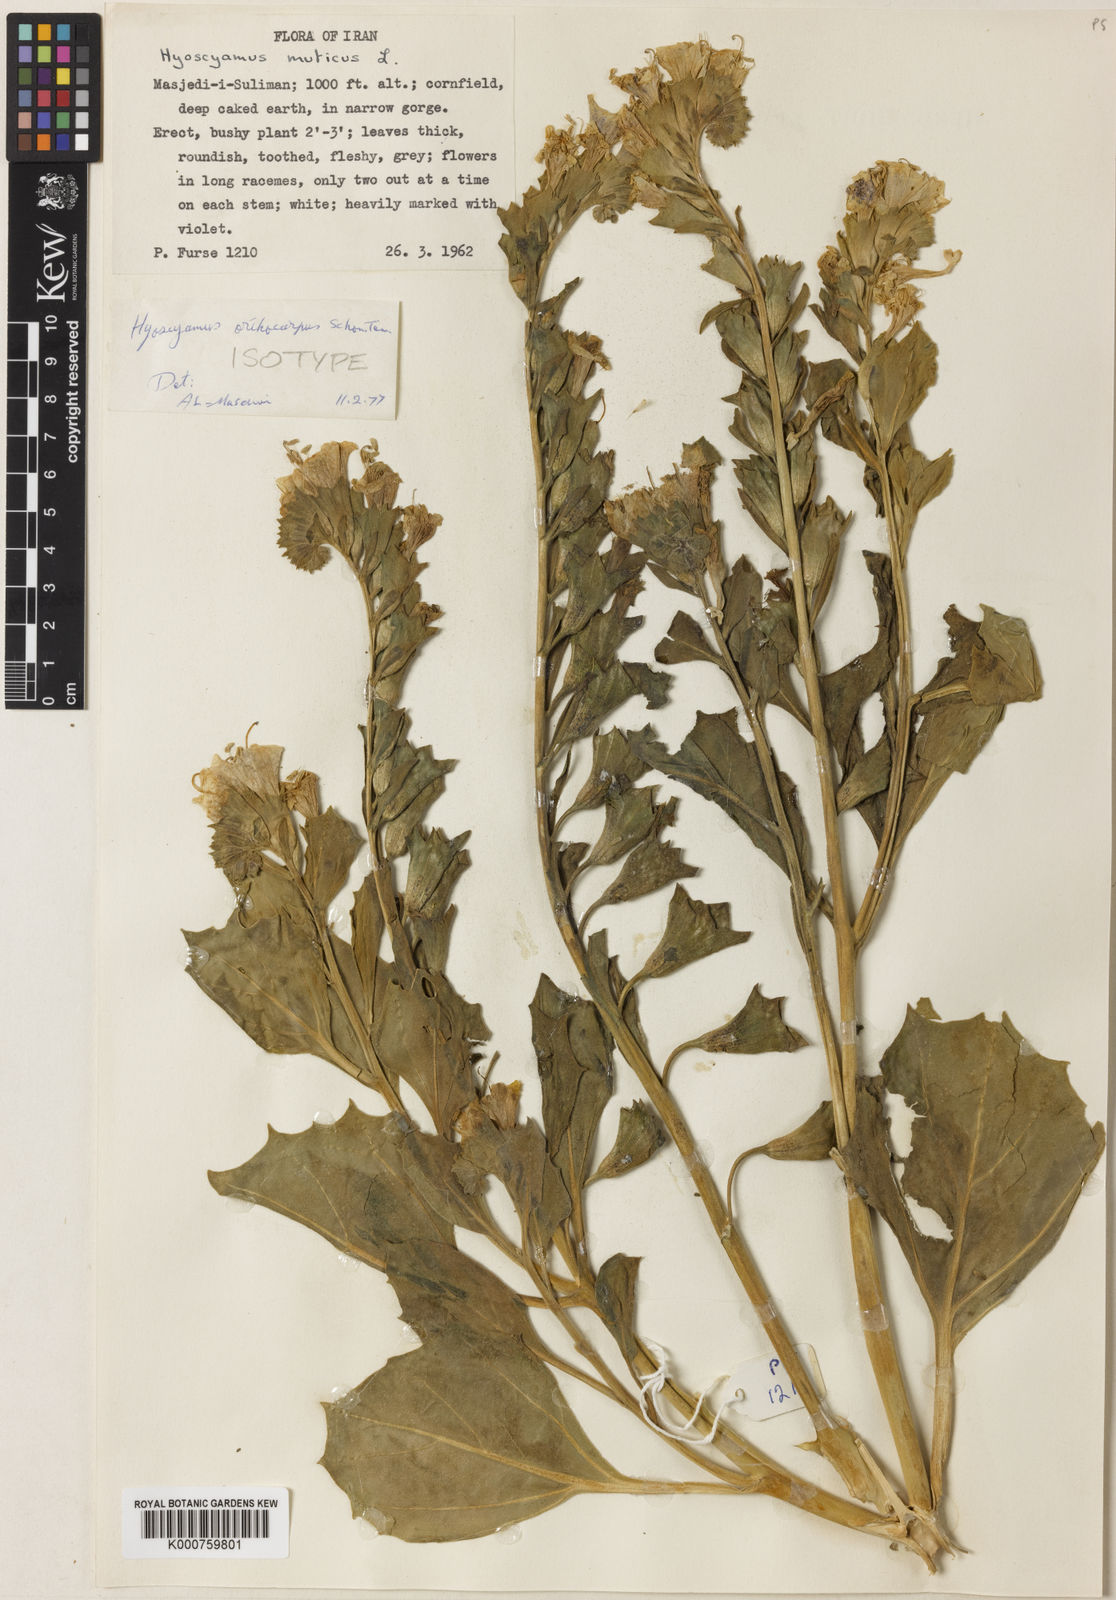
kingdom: Plantae
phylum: Tracheophyta
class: Magnoliopsida
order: Solanales
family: Solanaceae
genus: Hyoscyamus
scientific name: Hyoscyamus
